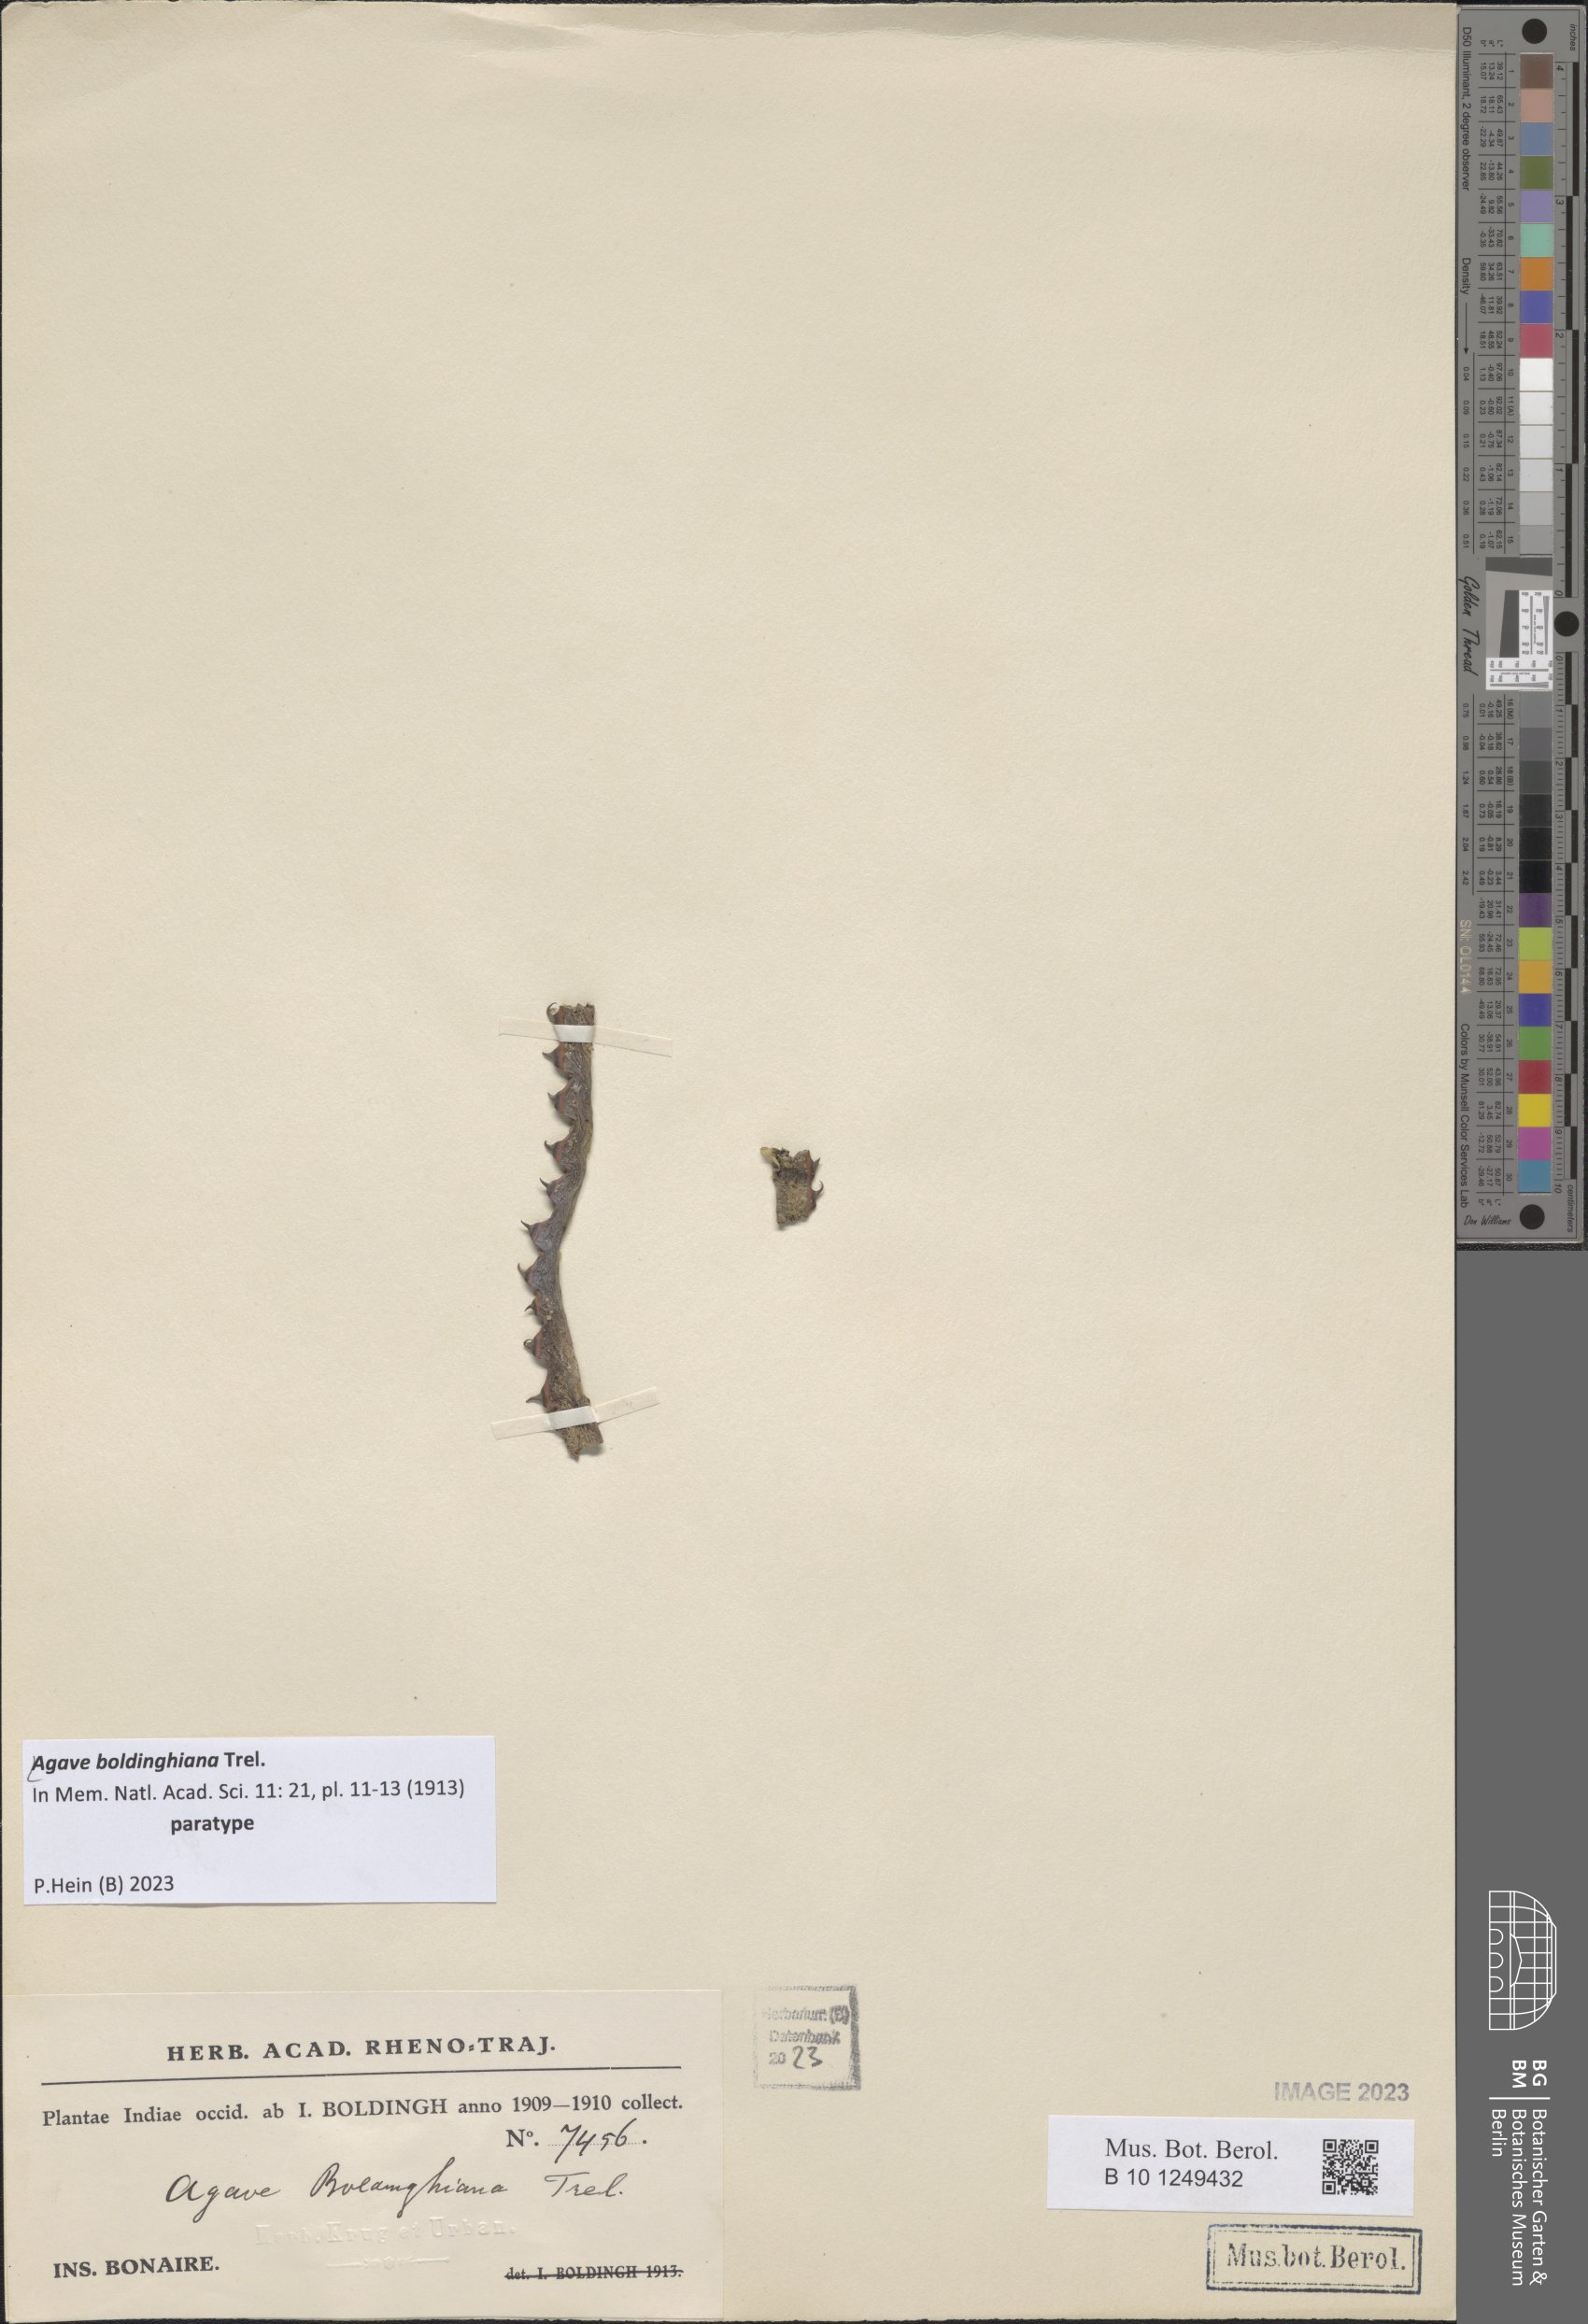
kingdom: Plantae
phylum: Tracheophyta
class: Liliopsida
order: Asparagales
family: Asparagaceae
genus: Agave
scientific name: Agave boldinghiana
